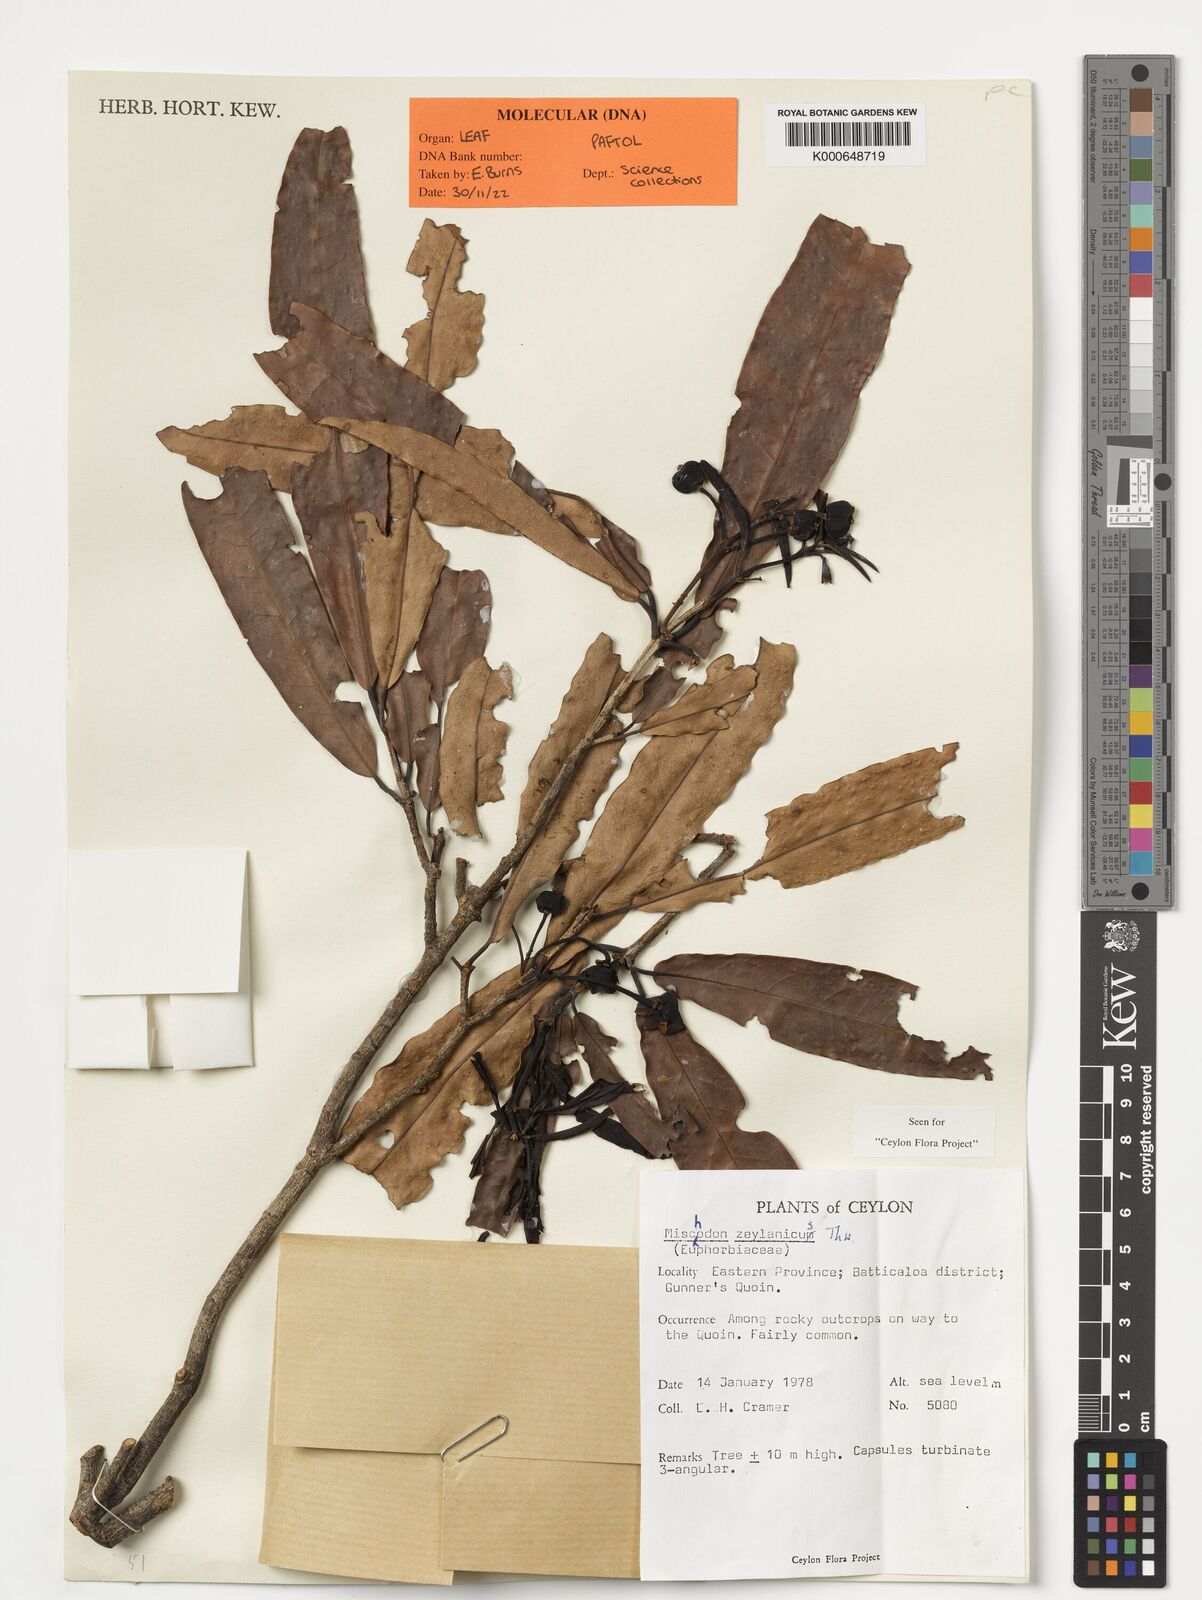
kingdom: Plantae
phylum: Tracheophyta
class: Magnoliopsida
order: Malpighiales
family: Picrodendraceae
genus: Mischodon
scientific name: Mischodon zeylanicus
